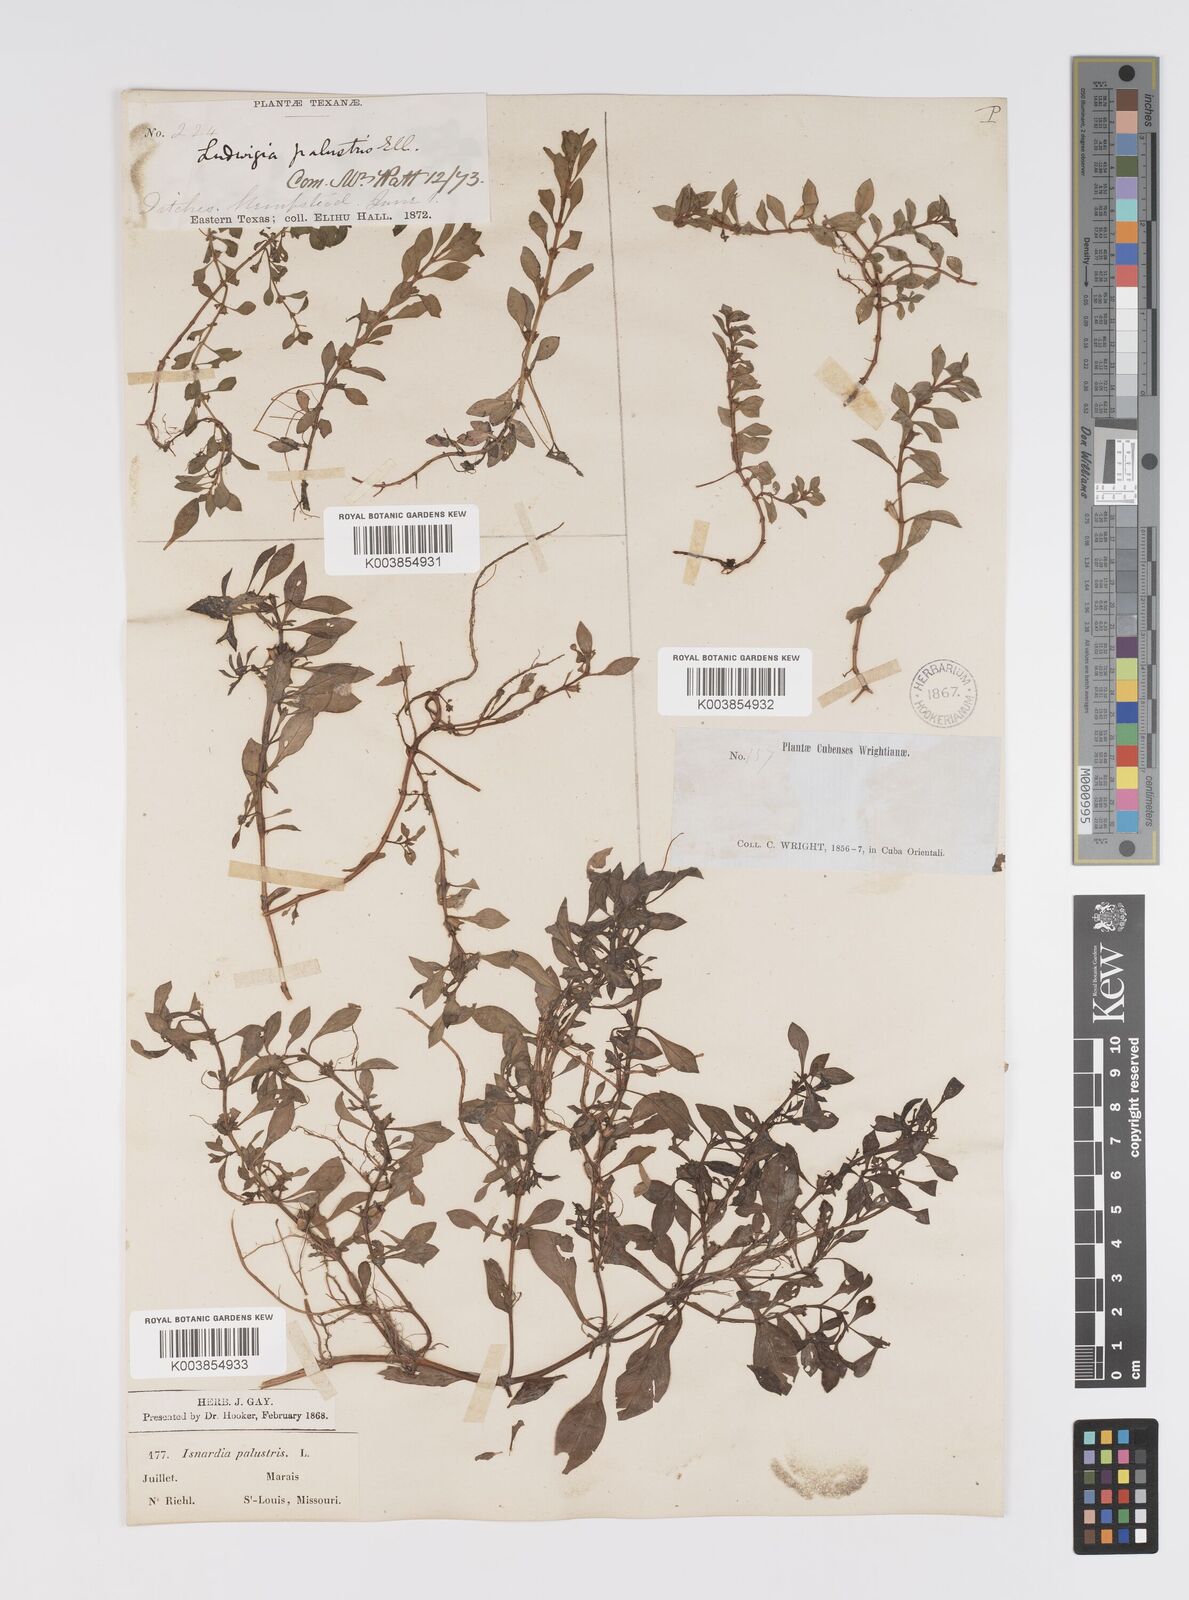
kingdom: Plantae
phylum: Tracheophyta
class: Magnoliopsida
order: Myrtales
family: Onagraceae
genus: Ludwigia
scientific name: Ludwigia palustris
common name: Hampshire-purslane
